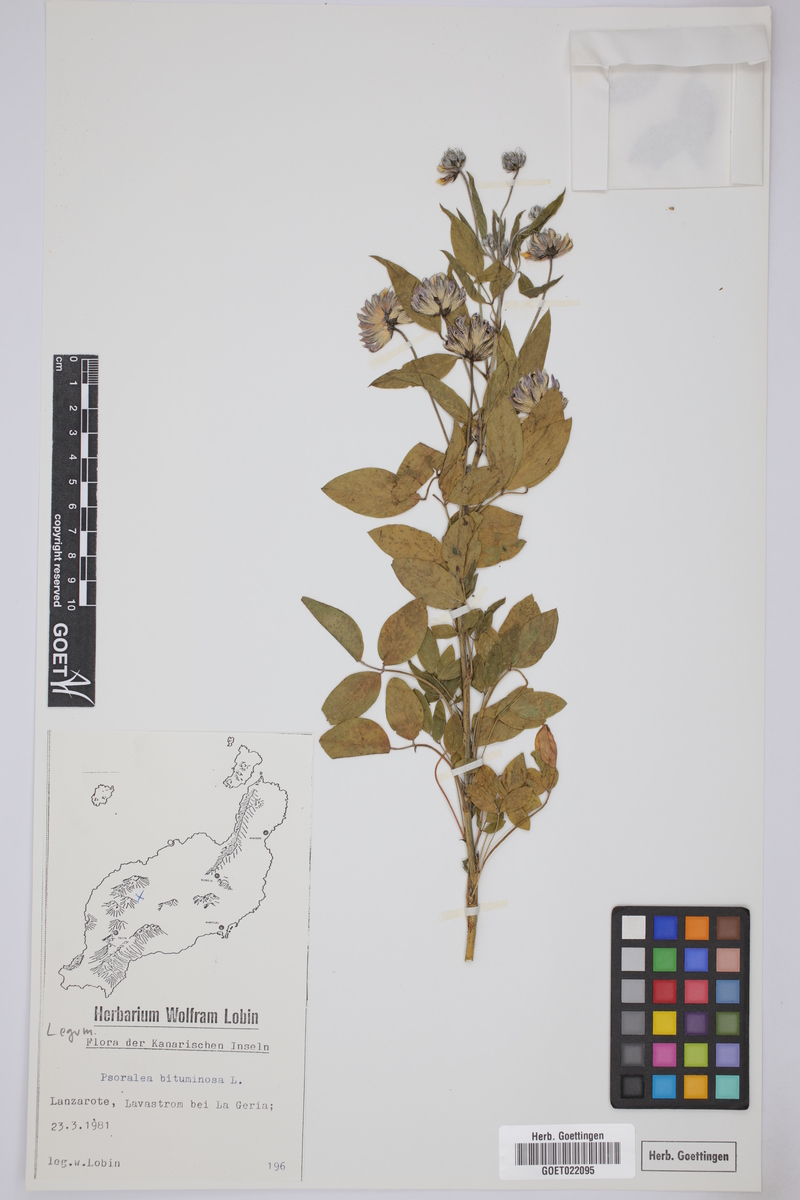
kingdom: Plantae
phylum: Tracheophyta
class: Magnoliopsida
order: Fabales
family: Fabaceae
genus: Bituminaria
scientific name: Bituminaria bituminosa
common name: Arabian pea
